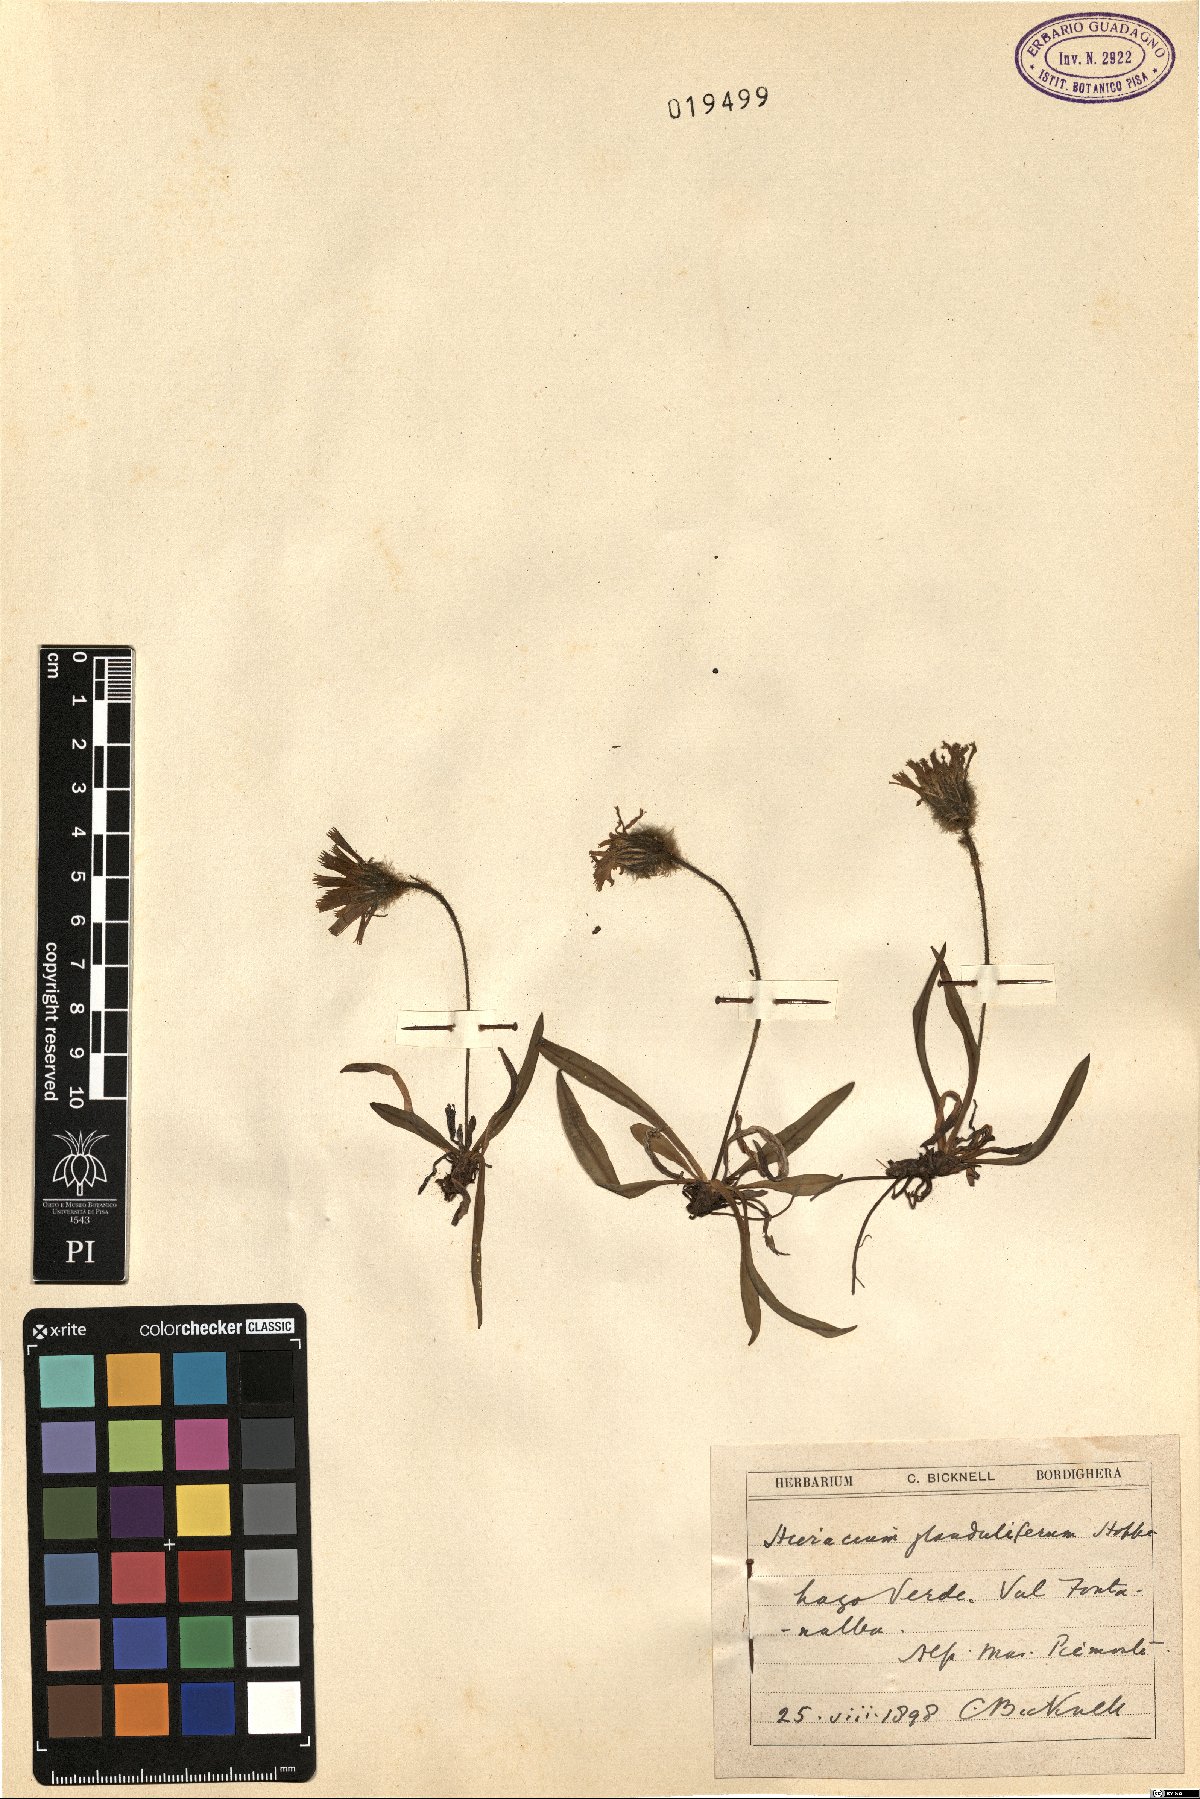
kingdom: Plantae
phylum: Tracheophyta
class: Magnoliopsida
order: Asterales
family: Asteraceae
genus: Hieracium
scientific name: Hieracium piliferum
